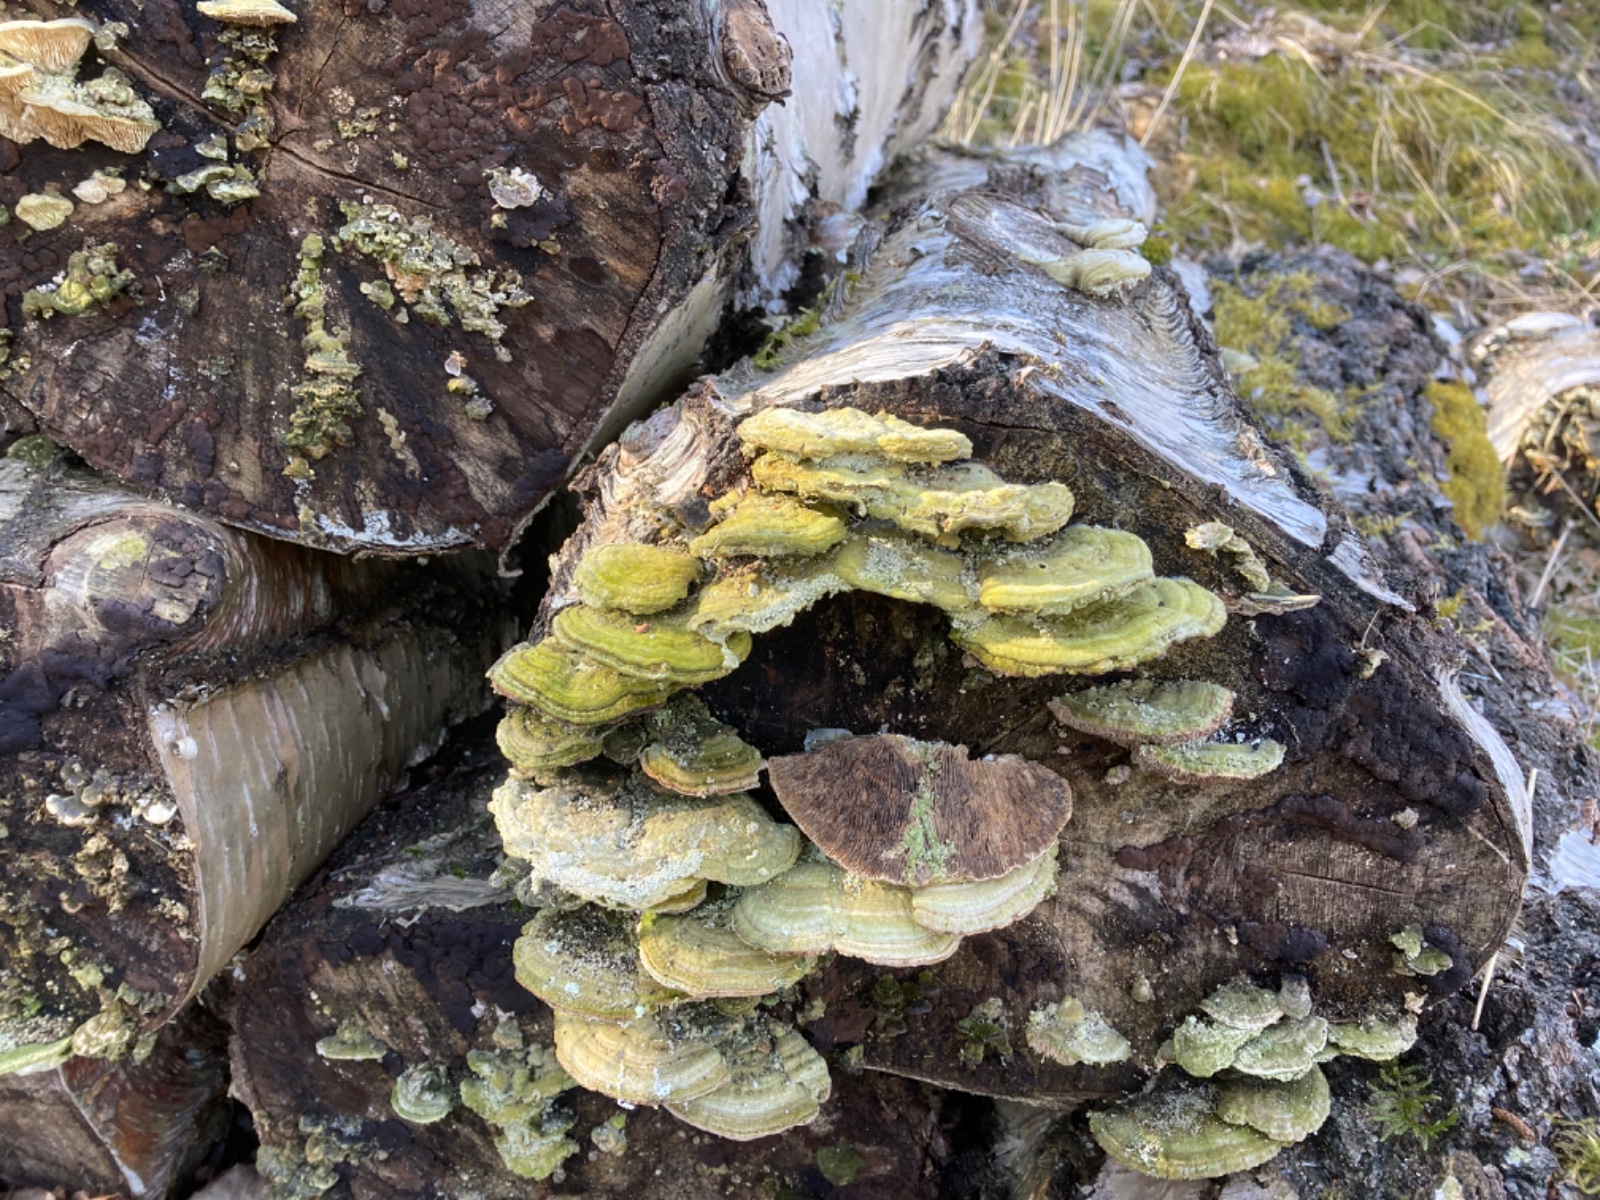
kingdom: Fungi
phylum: Basidiomycota
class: Agaricomycetes
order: Polyporales
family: Polyporaceae
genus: Lenzites
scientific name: Lenzites betulinus
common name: birke-læderporesvamp
